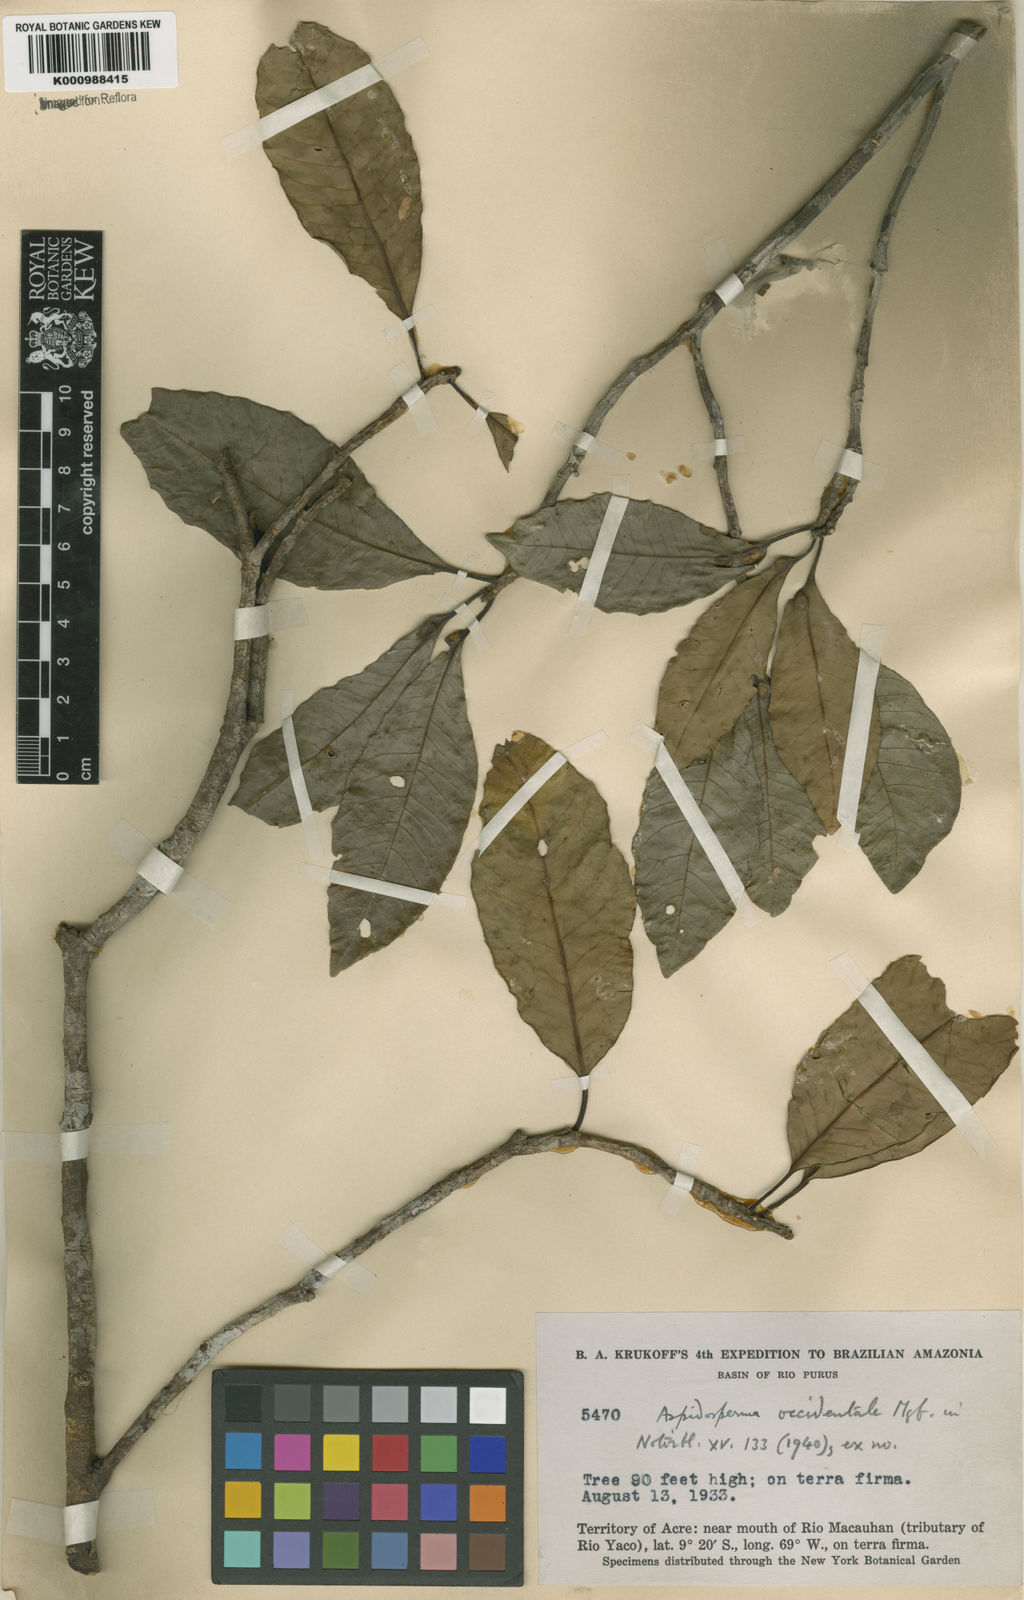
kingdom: Plantae
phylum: Tracheophyta
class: Magnoliopsida
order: Gentianales
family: Apocynaceae
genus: Aspidosperma
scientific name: Aspidosperma ulei
